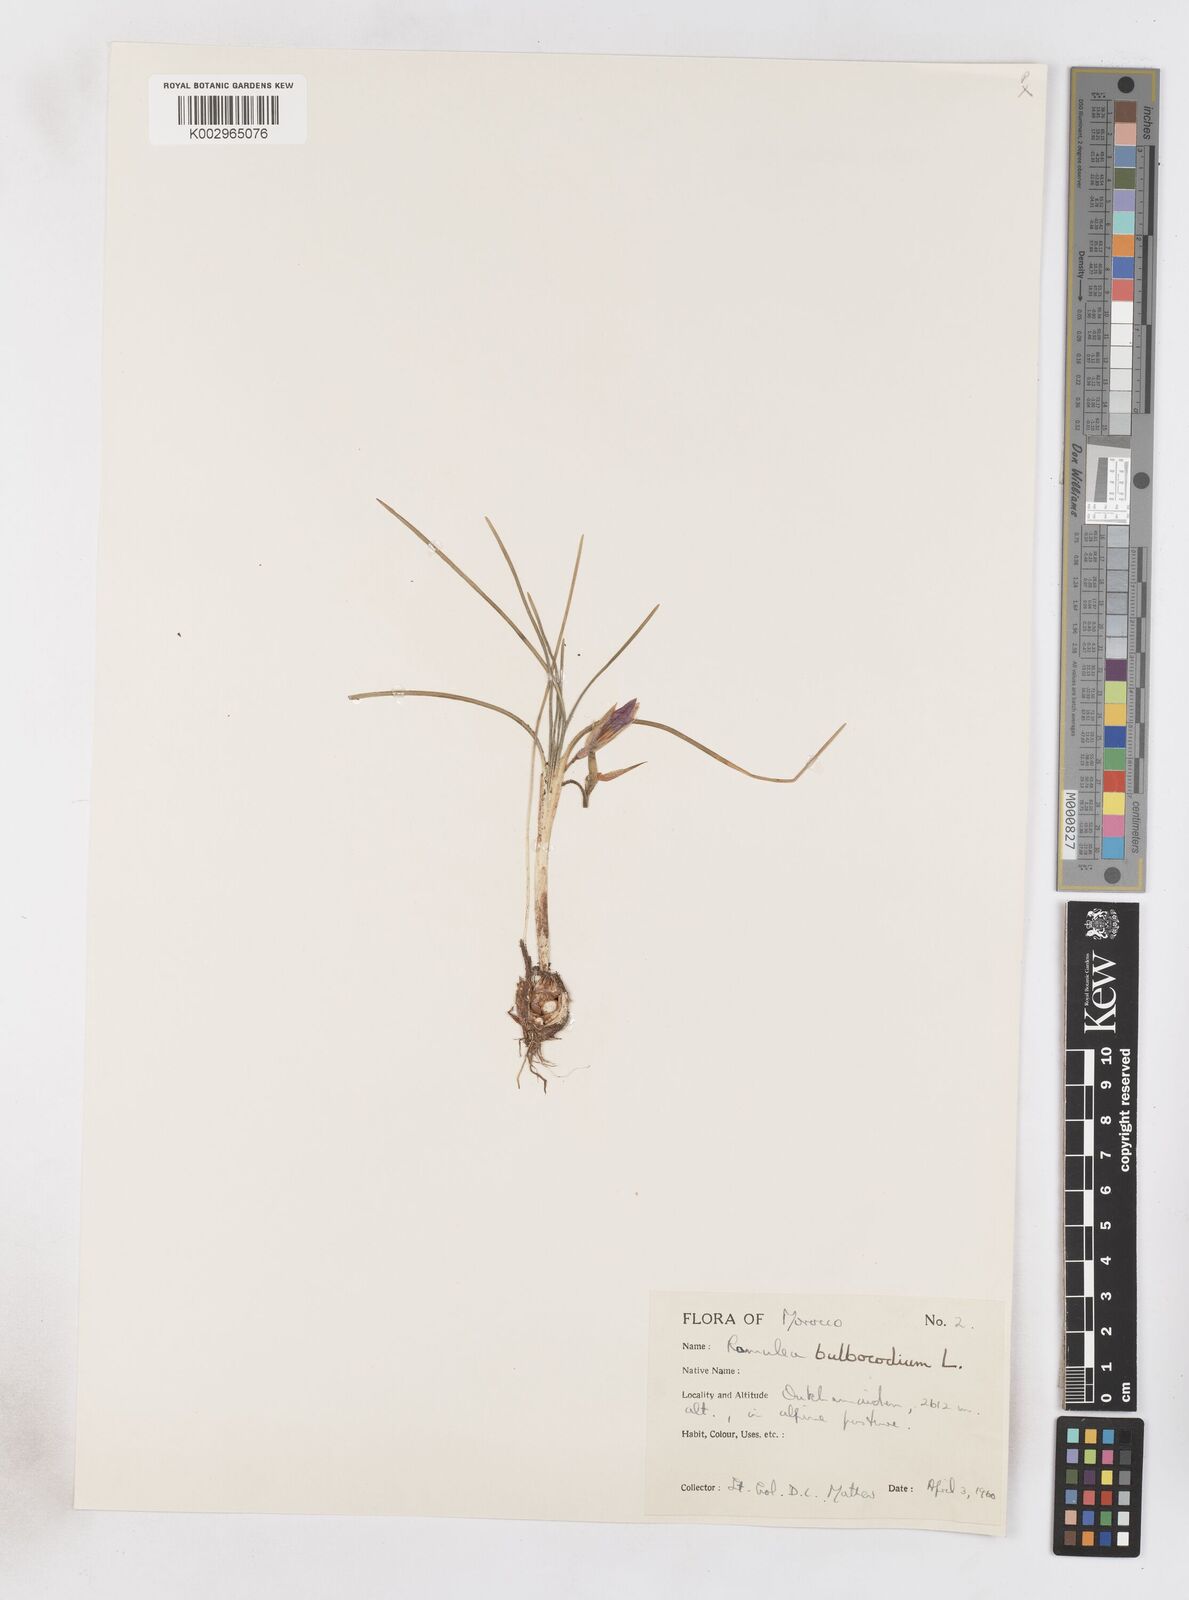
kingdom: Plantae
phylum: Tracheophyta
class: Liliopsida
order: Asparagales
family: Iridaceae
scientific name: Iridaceae
